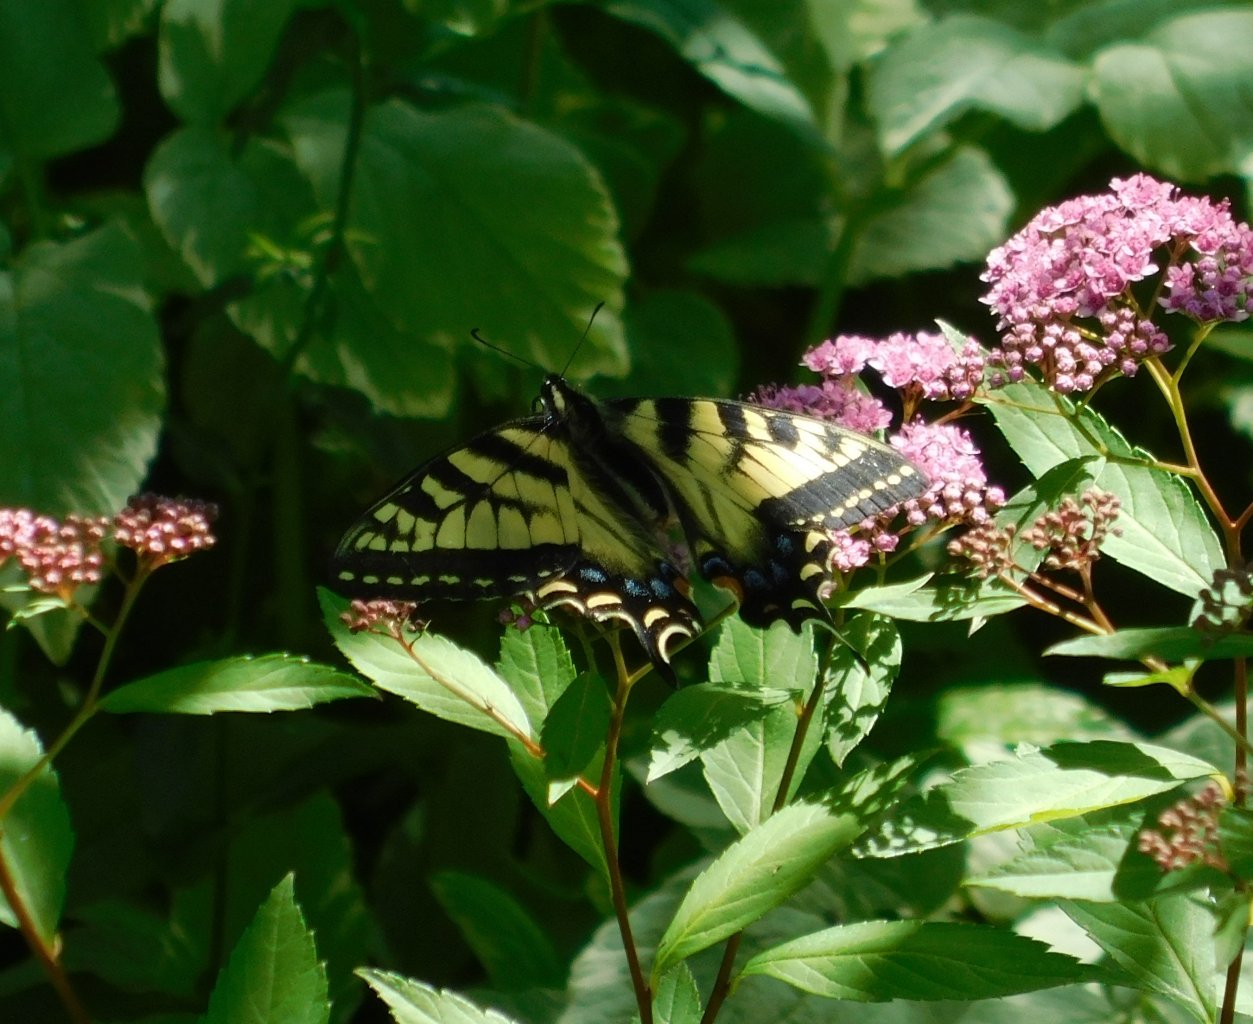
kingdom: Animalia
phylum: Arthropoda
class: Insecta
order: Lepidoptera
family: Papilionidae
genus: Pterourus
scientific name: Pterourus canadensis
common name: Canadian Tiger Swallowtail
